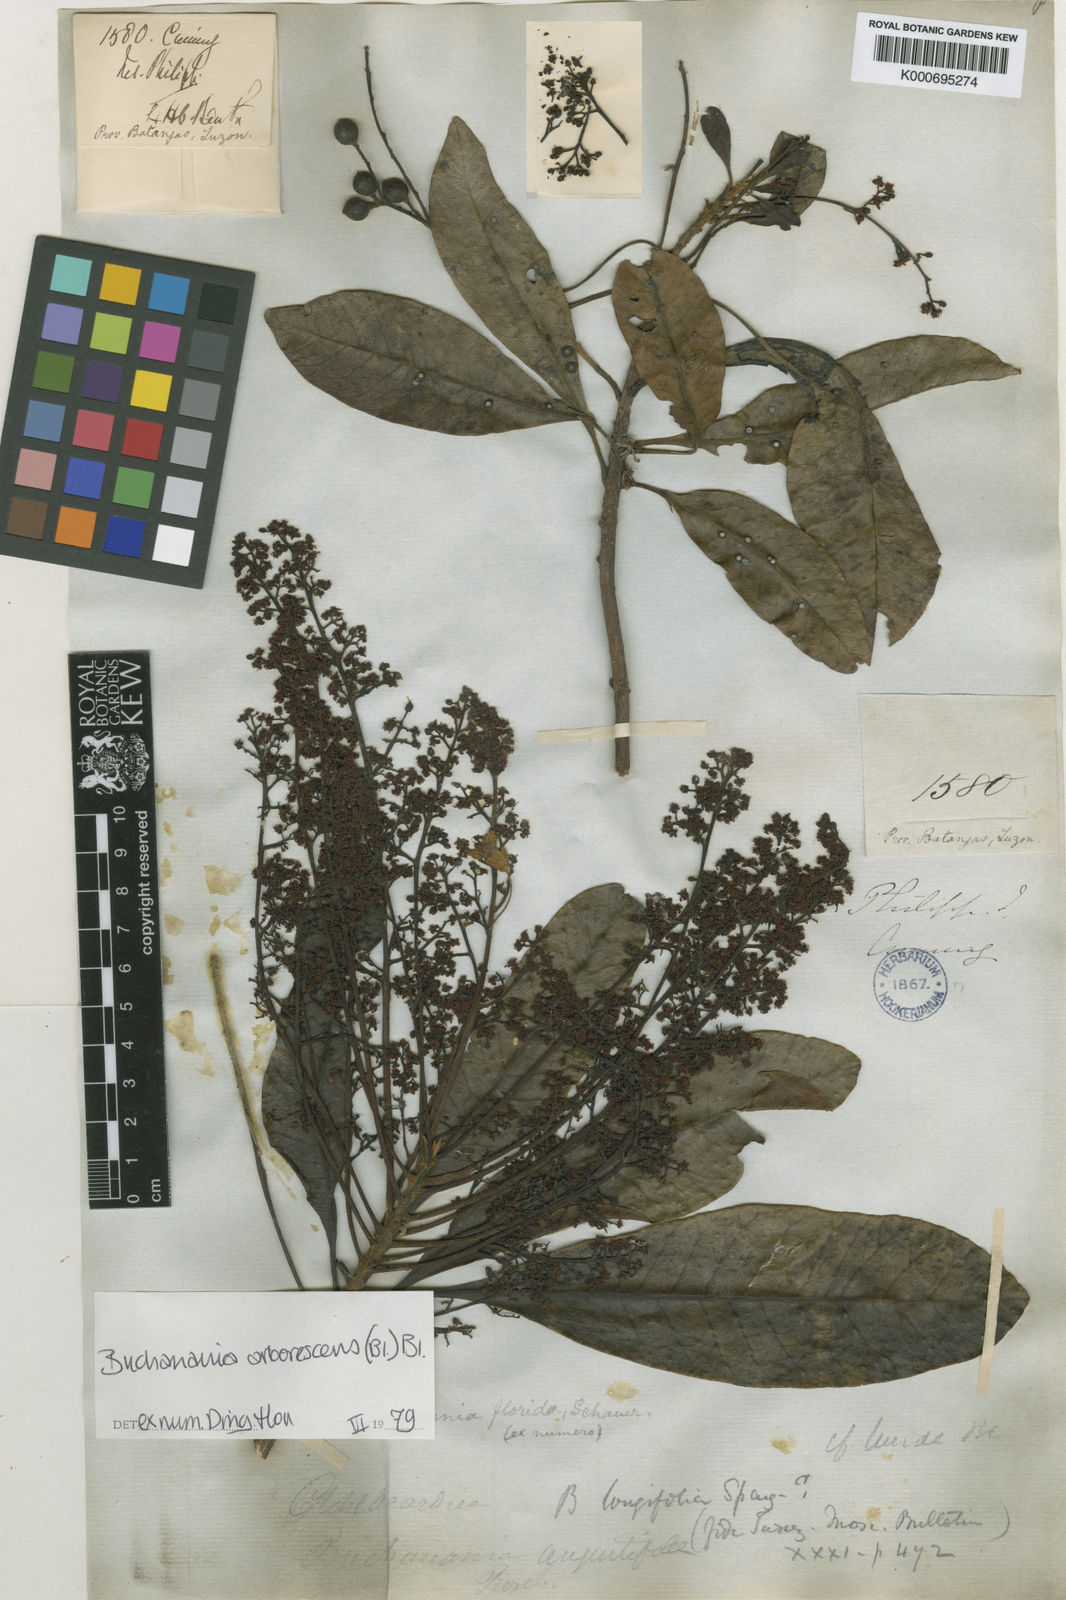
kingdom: Plantae
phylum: Tracheophyta
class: Magnoliopsida
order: Sapindales
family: Anacardiaceae
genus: Buchanania
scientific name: Buchanania arborescens
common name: Sparrow’s mango
